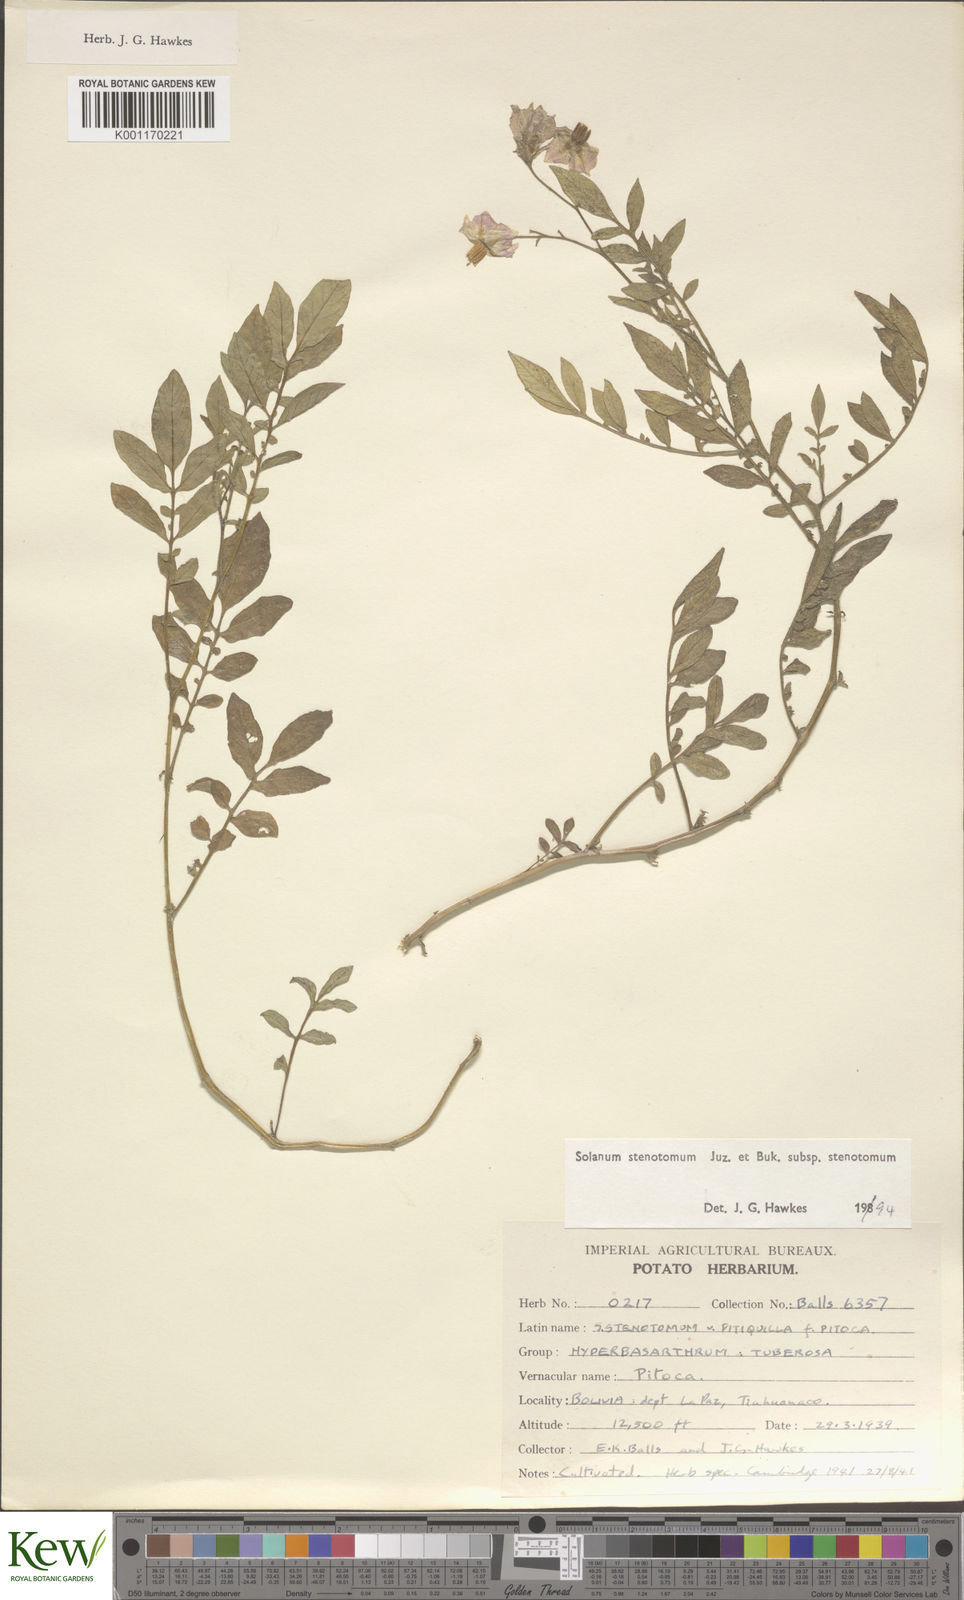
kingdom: Plantae
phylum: Tracheophyta
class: Magnoliopsida
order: Solanales
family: Solanaceae
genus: Solanum
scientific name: Solanum tuberosum
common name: Potato
